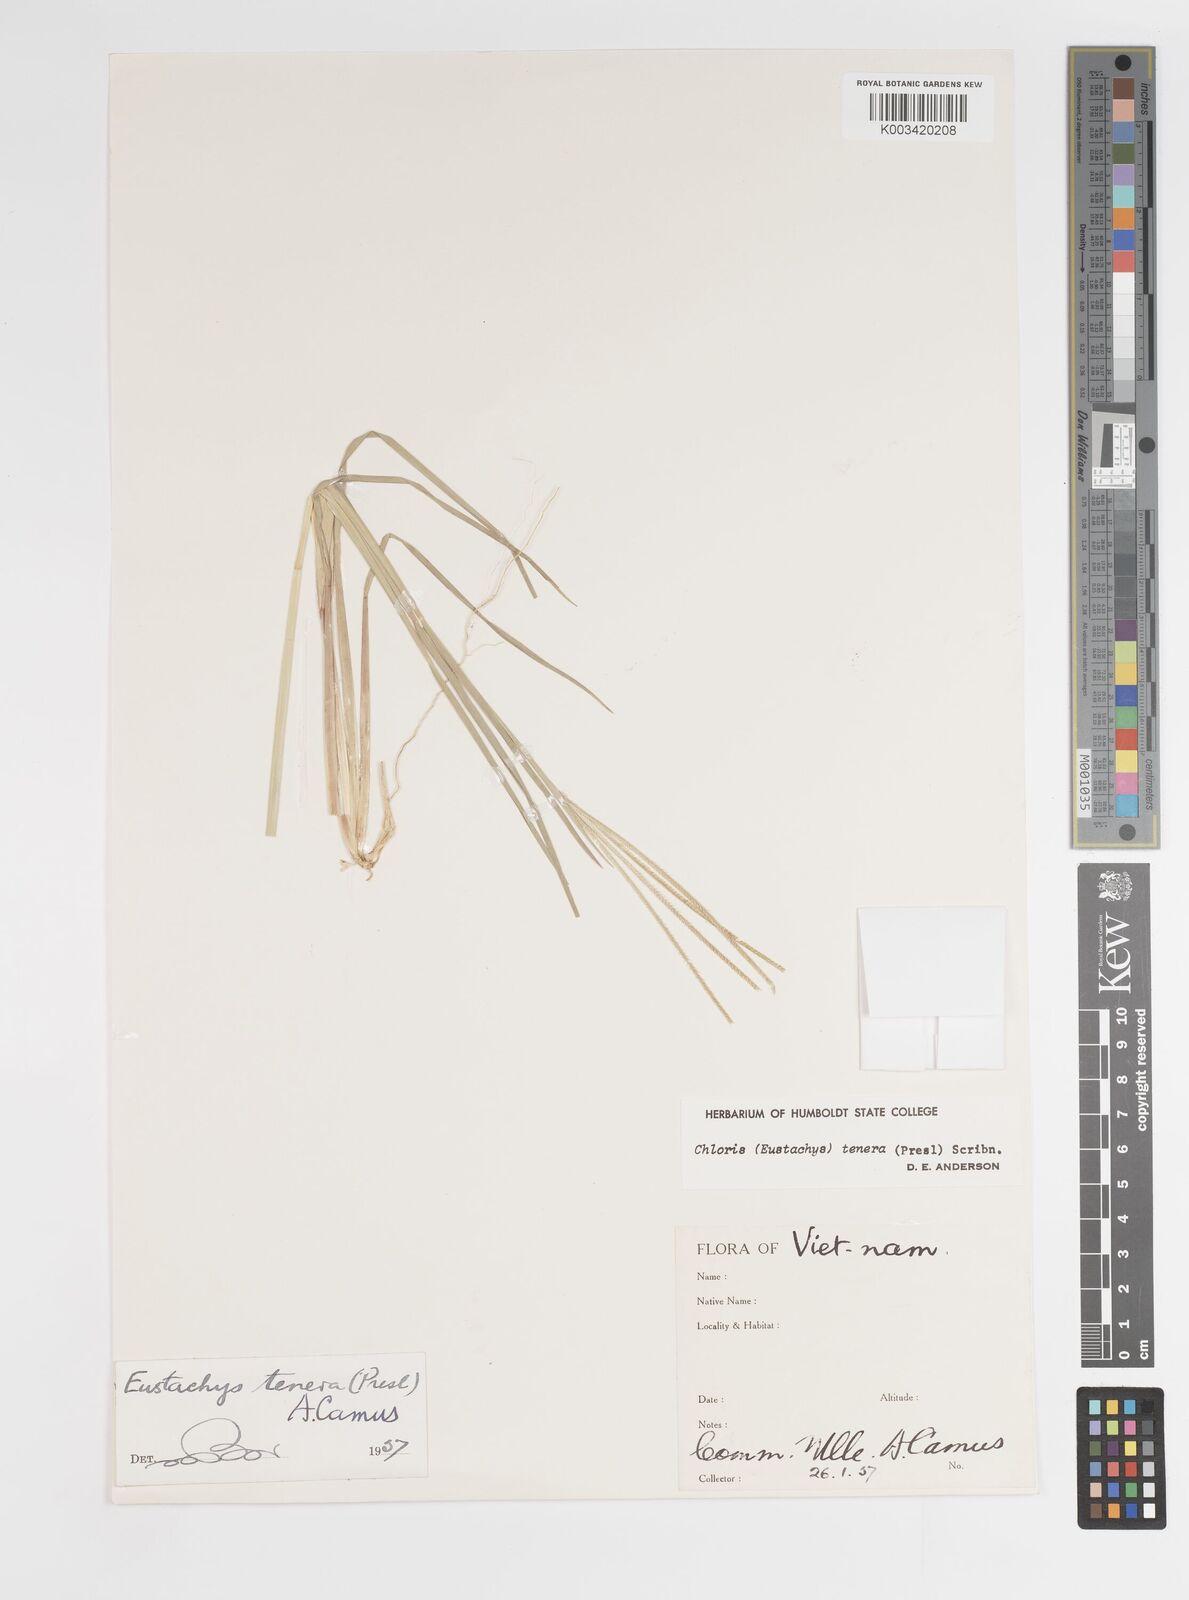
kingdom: Plantae
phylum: Tracheophyta
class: Liliopsida
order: Poales
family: Poaceae
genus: Eustachys
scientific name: Eustachys tenera
